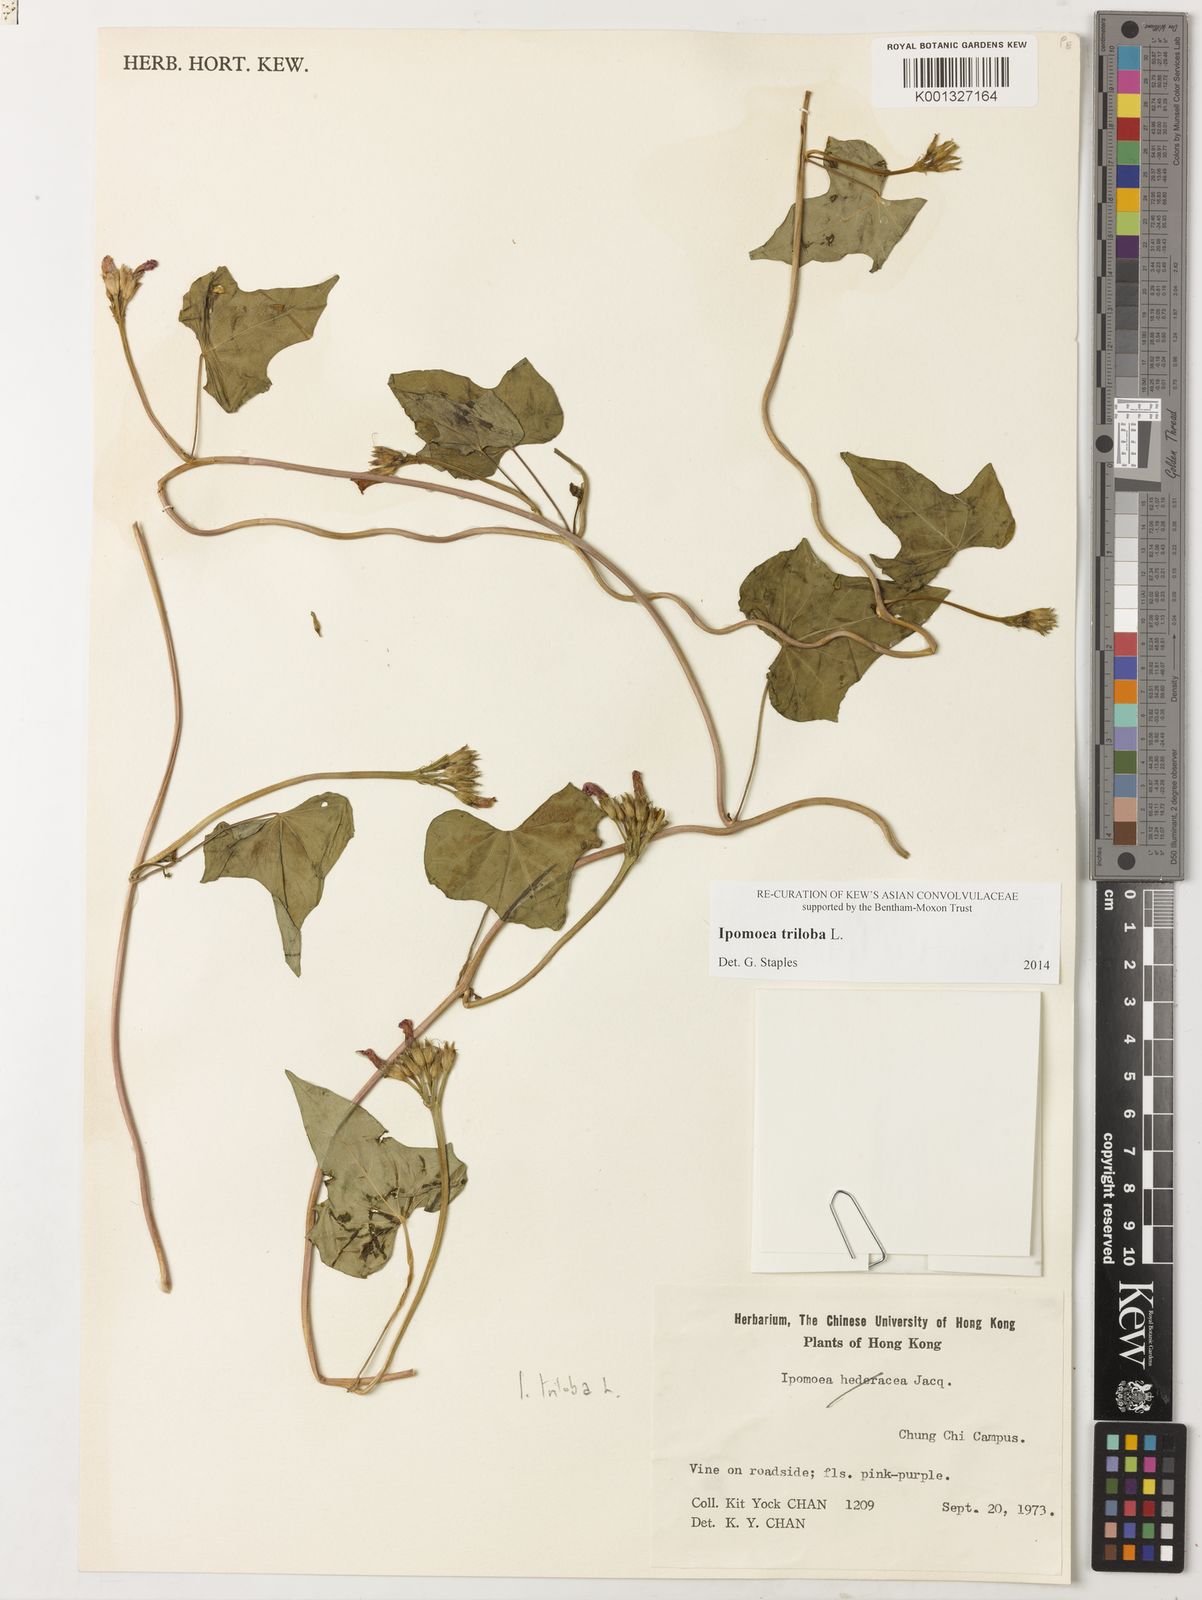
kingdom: Plantae
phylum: Tracheophyta
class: Magnoliopsida
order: Solanales
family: Convolvulaceae
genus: Ipomoea
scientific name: Ipomoea triloba
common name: Little-bell
